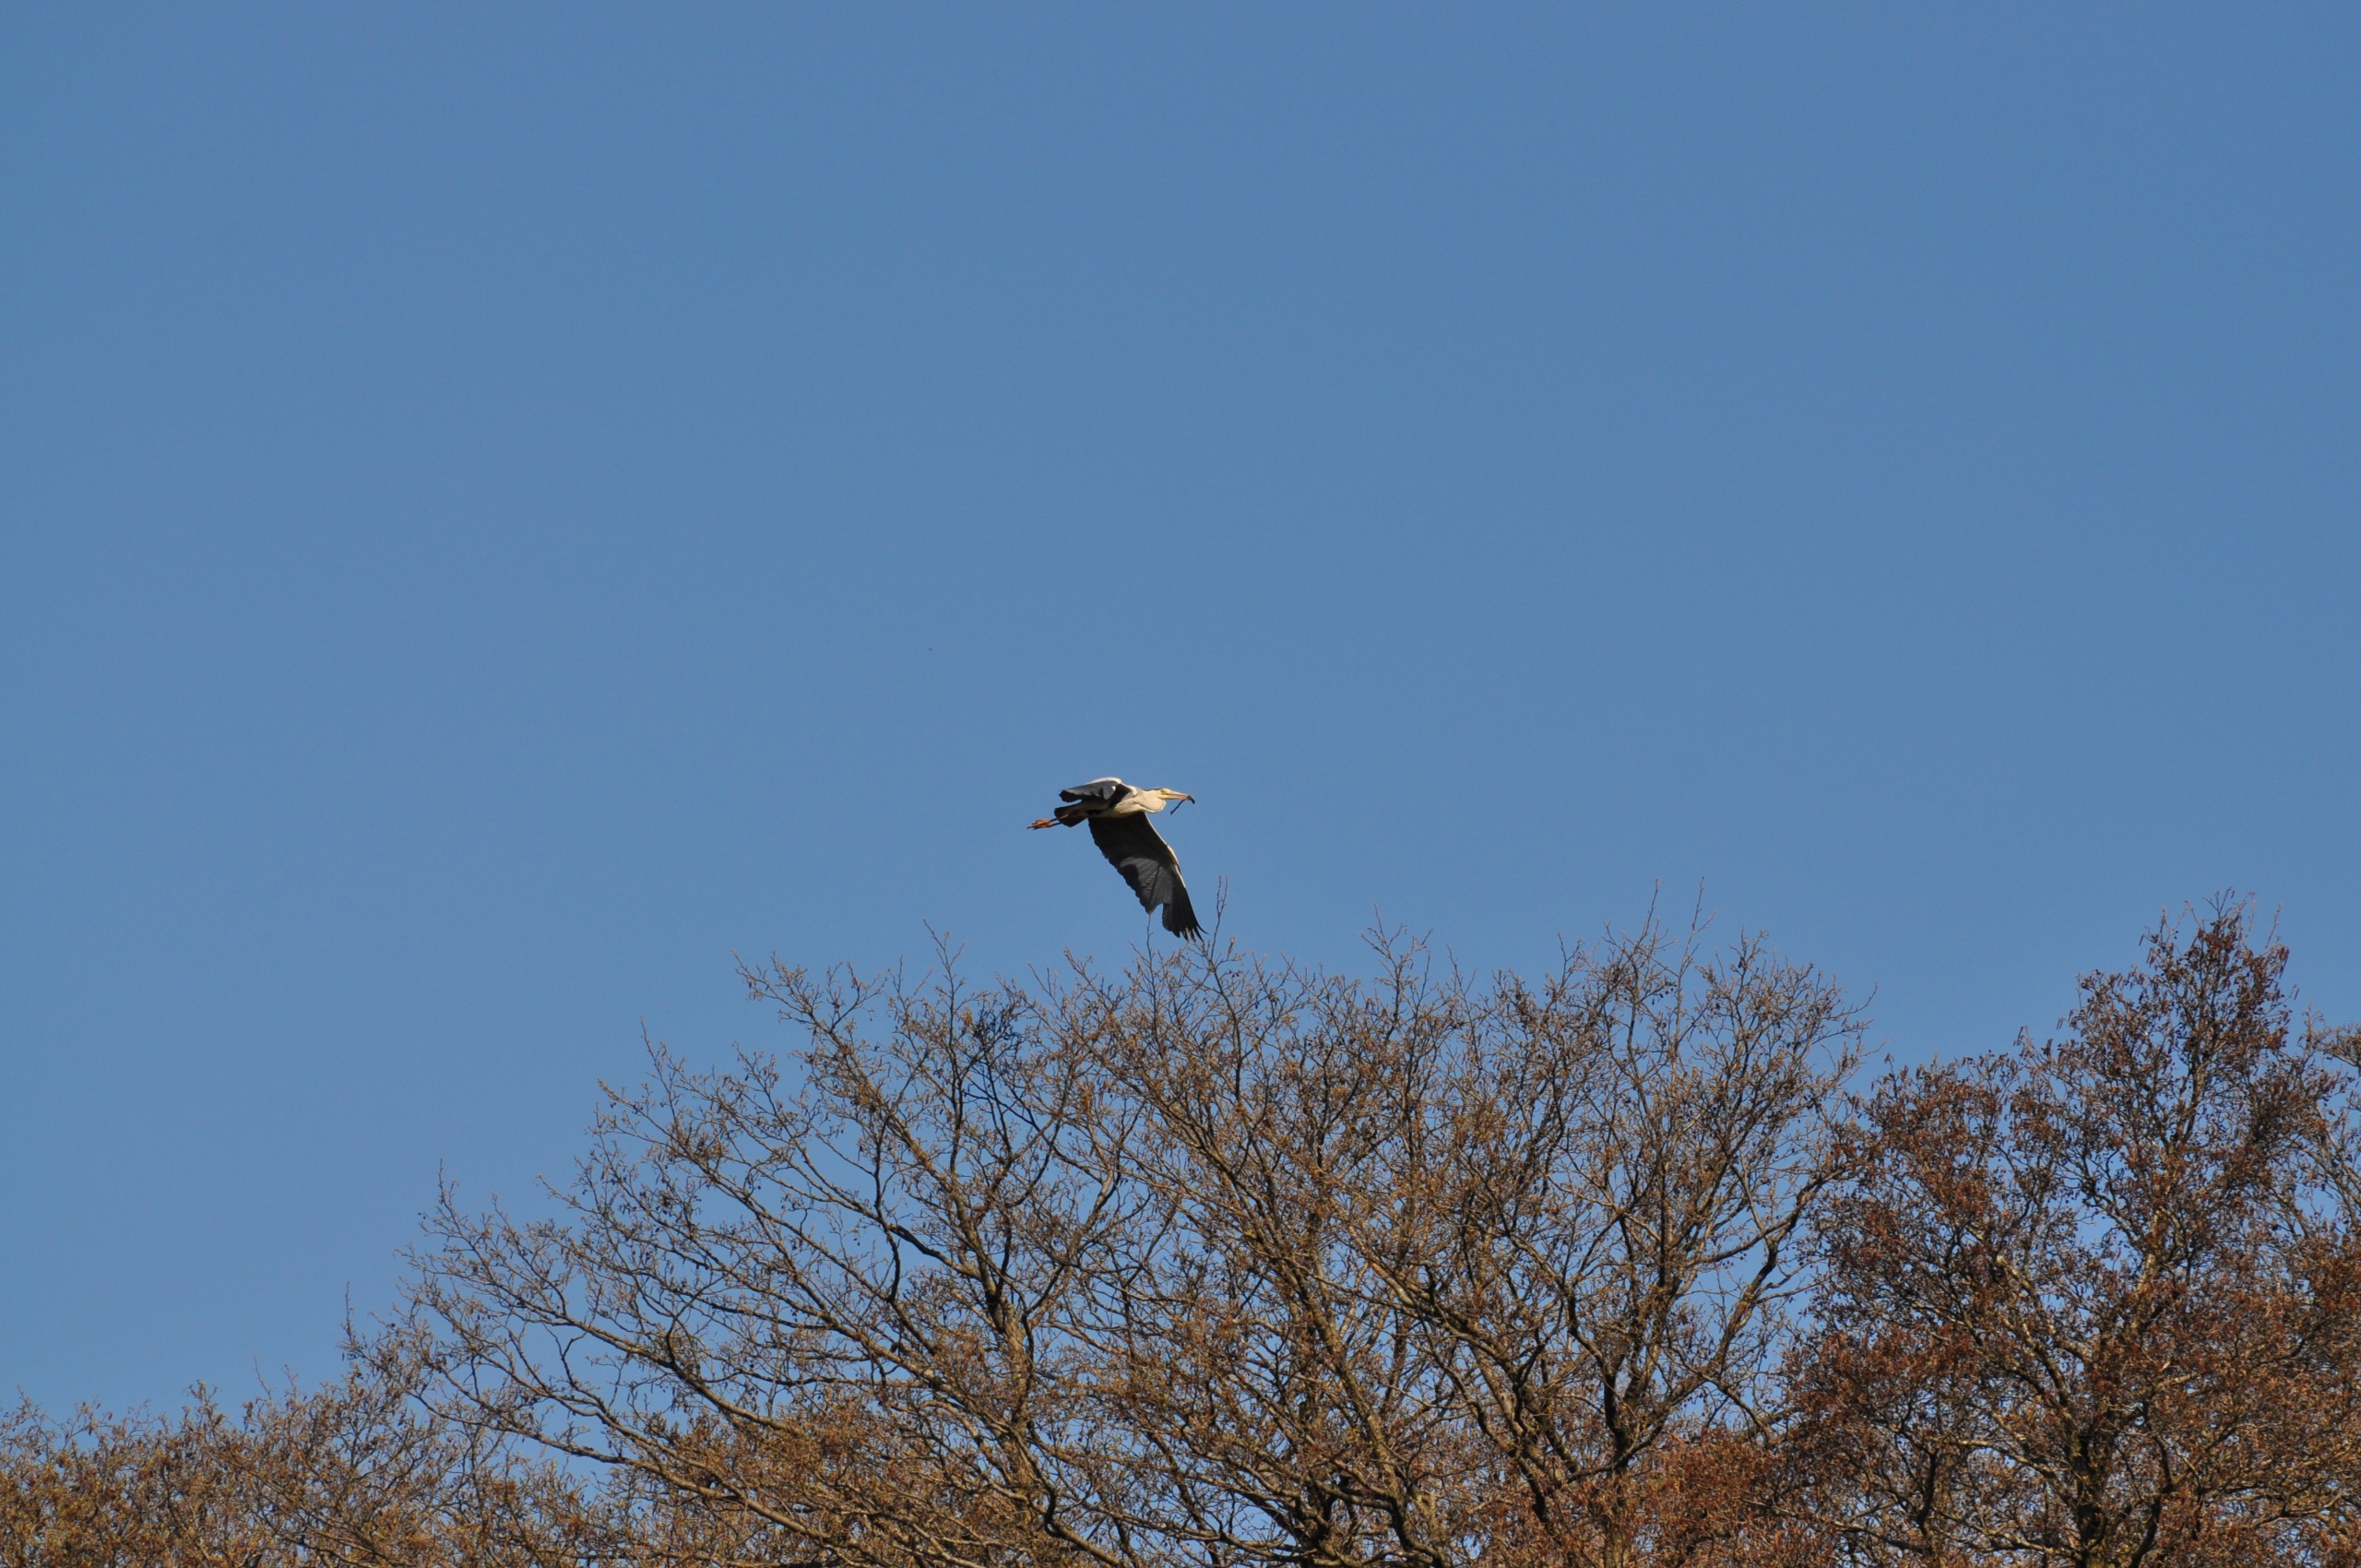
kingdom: Animalia
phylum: Chordata
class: Aves
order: Pelecaniformes
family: Ardeidae
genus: Ardea
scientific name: Ardea cinerea
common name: Fiskehejre
